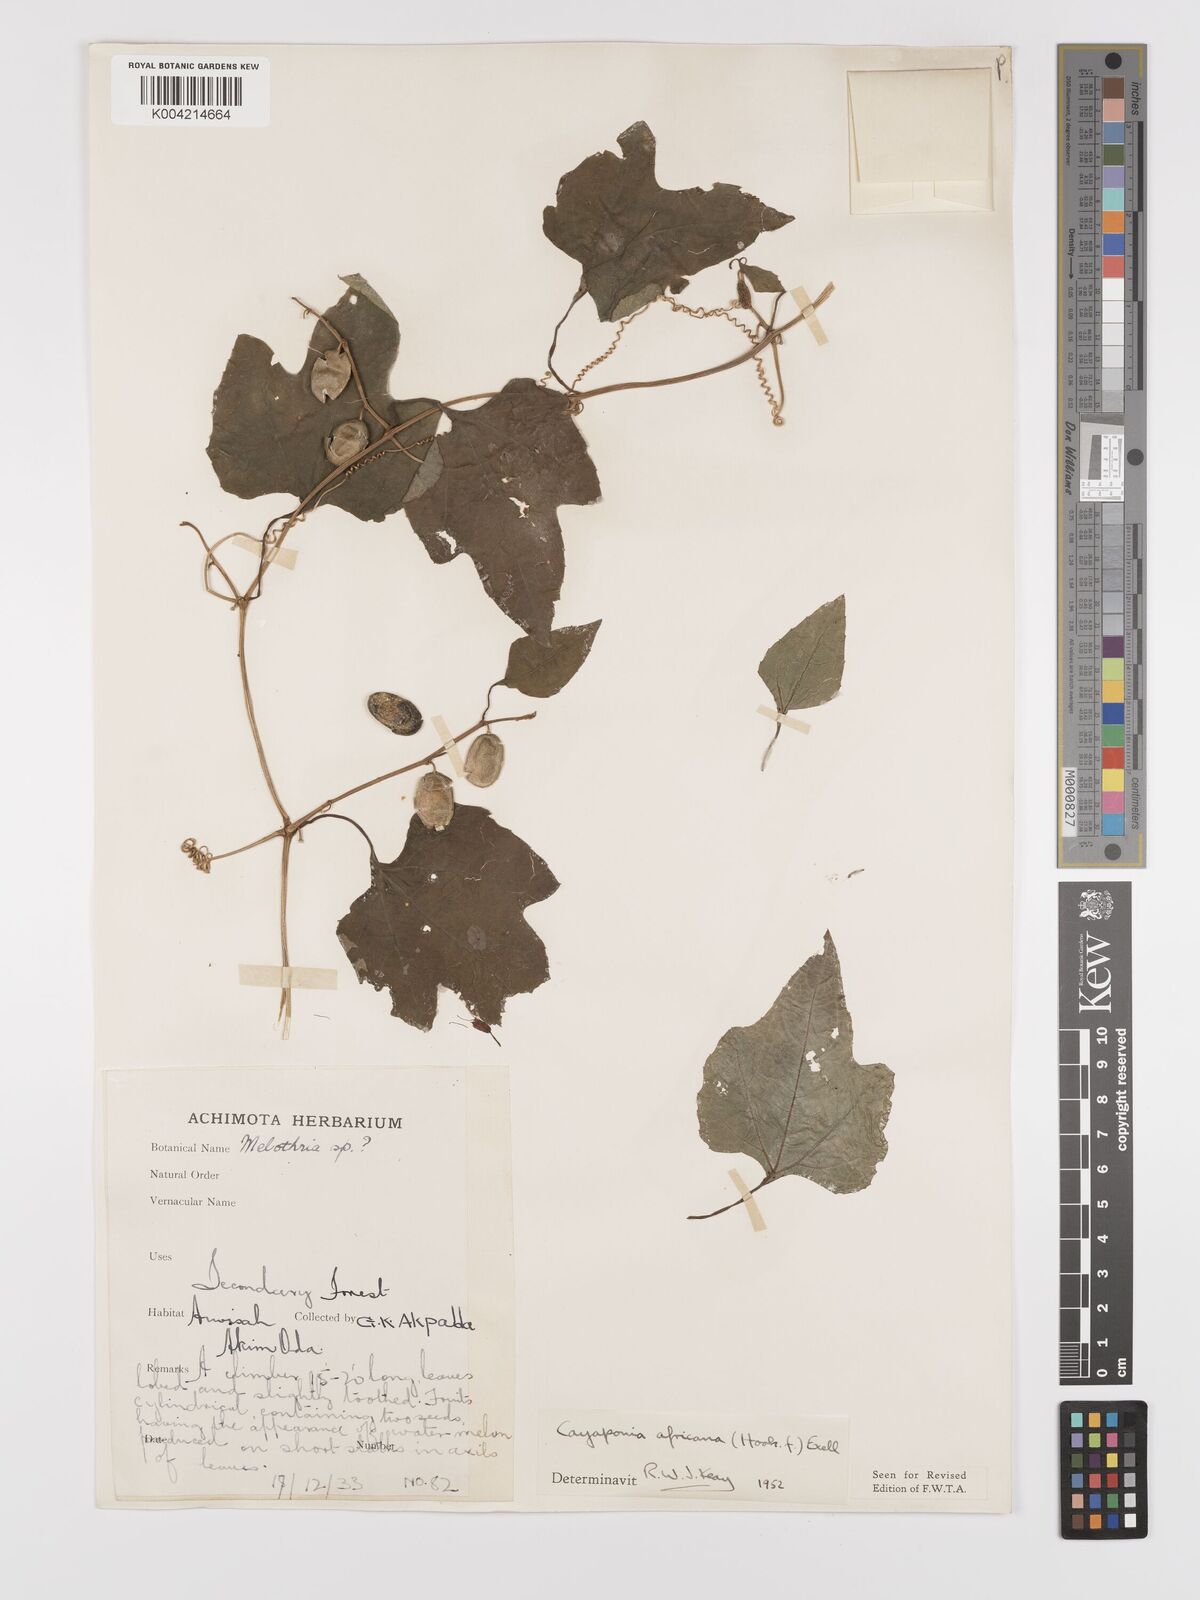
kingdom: Plantae
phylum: Tracheophyta
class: Magnoliopsida
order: Cucurbitales
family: Cucurbitaceae
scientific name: Cucurbitaceae
